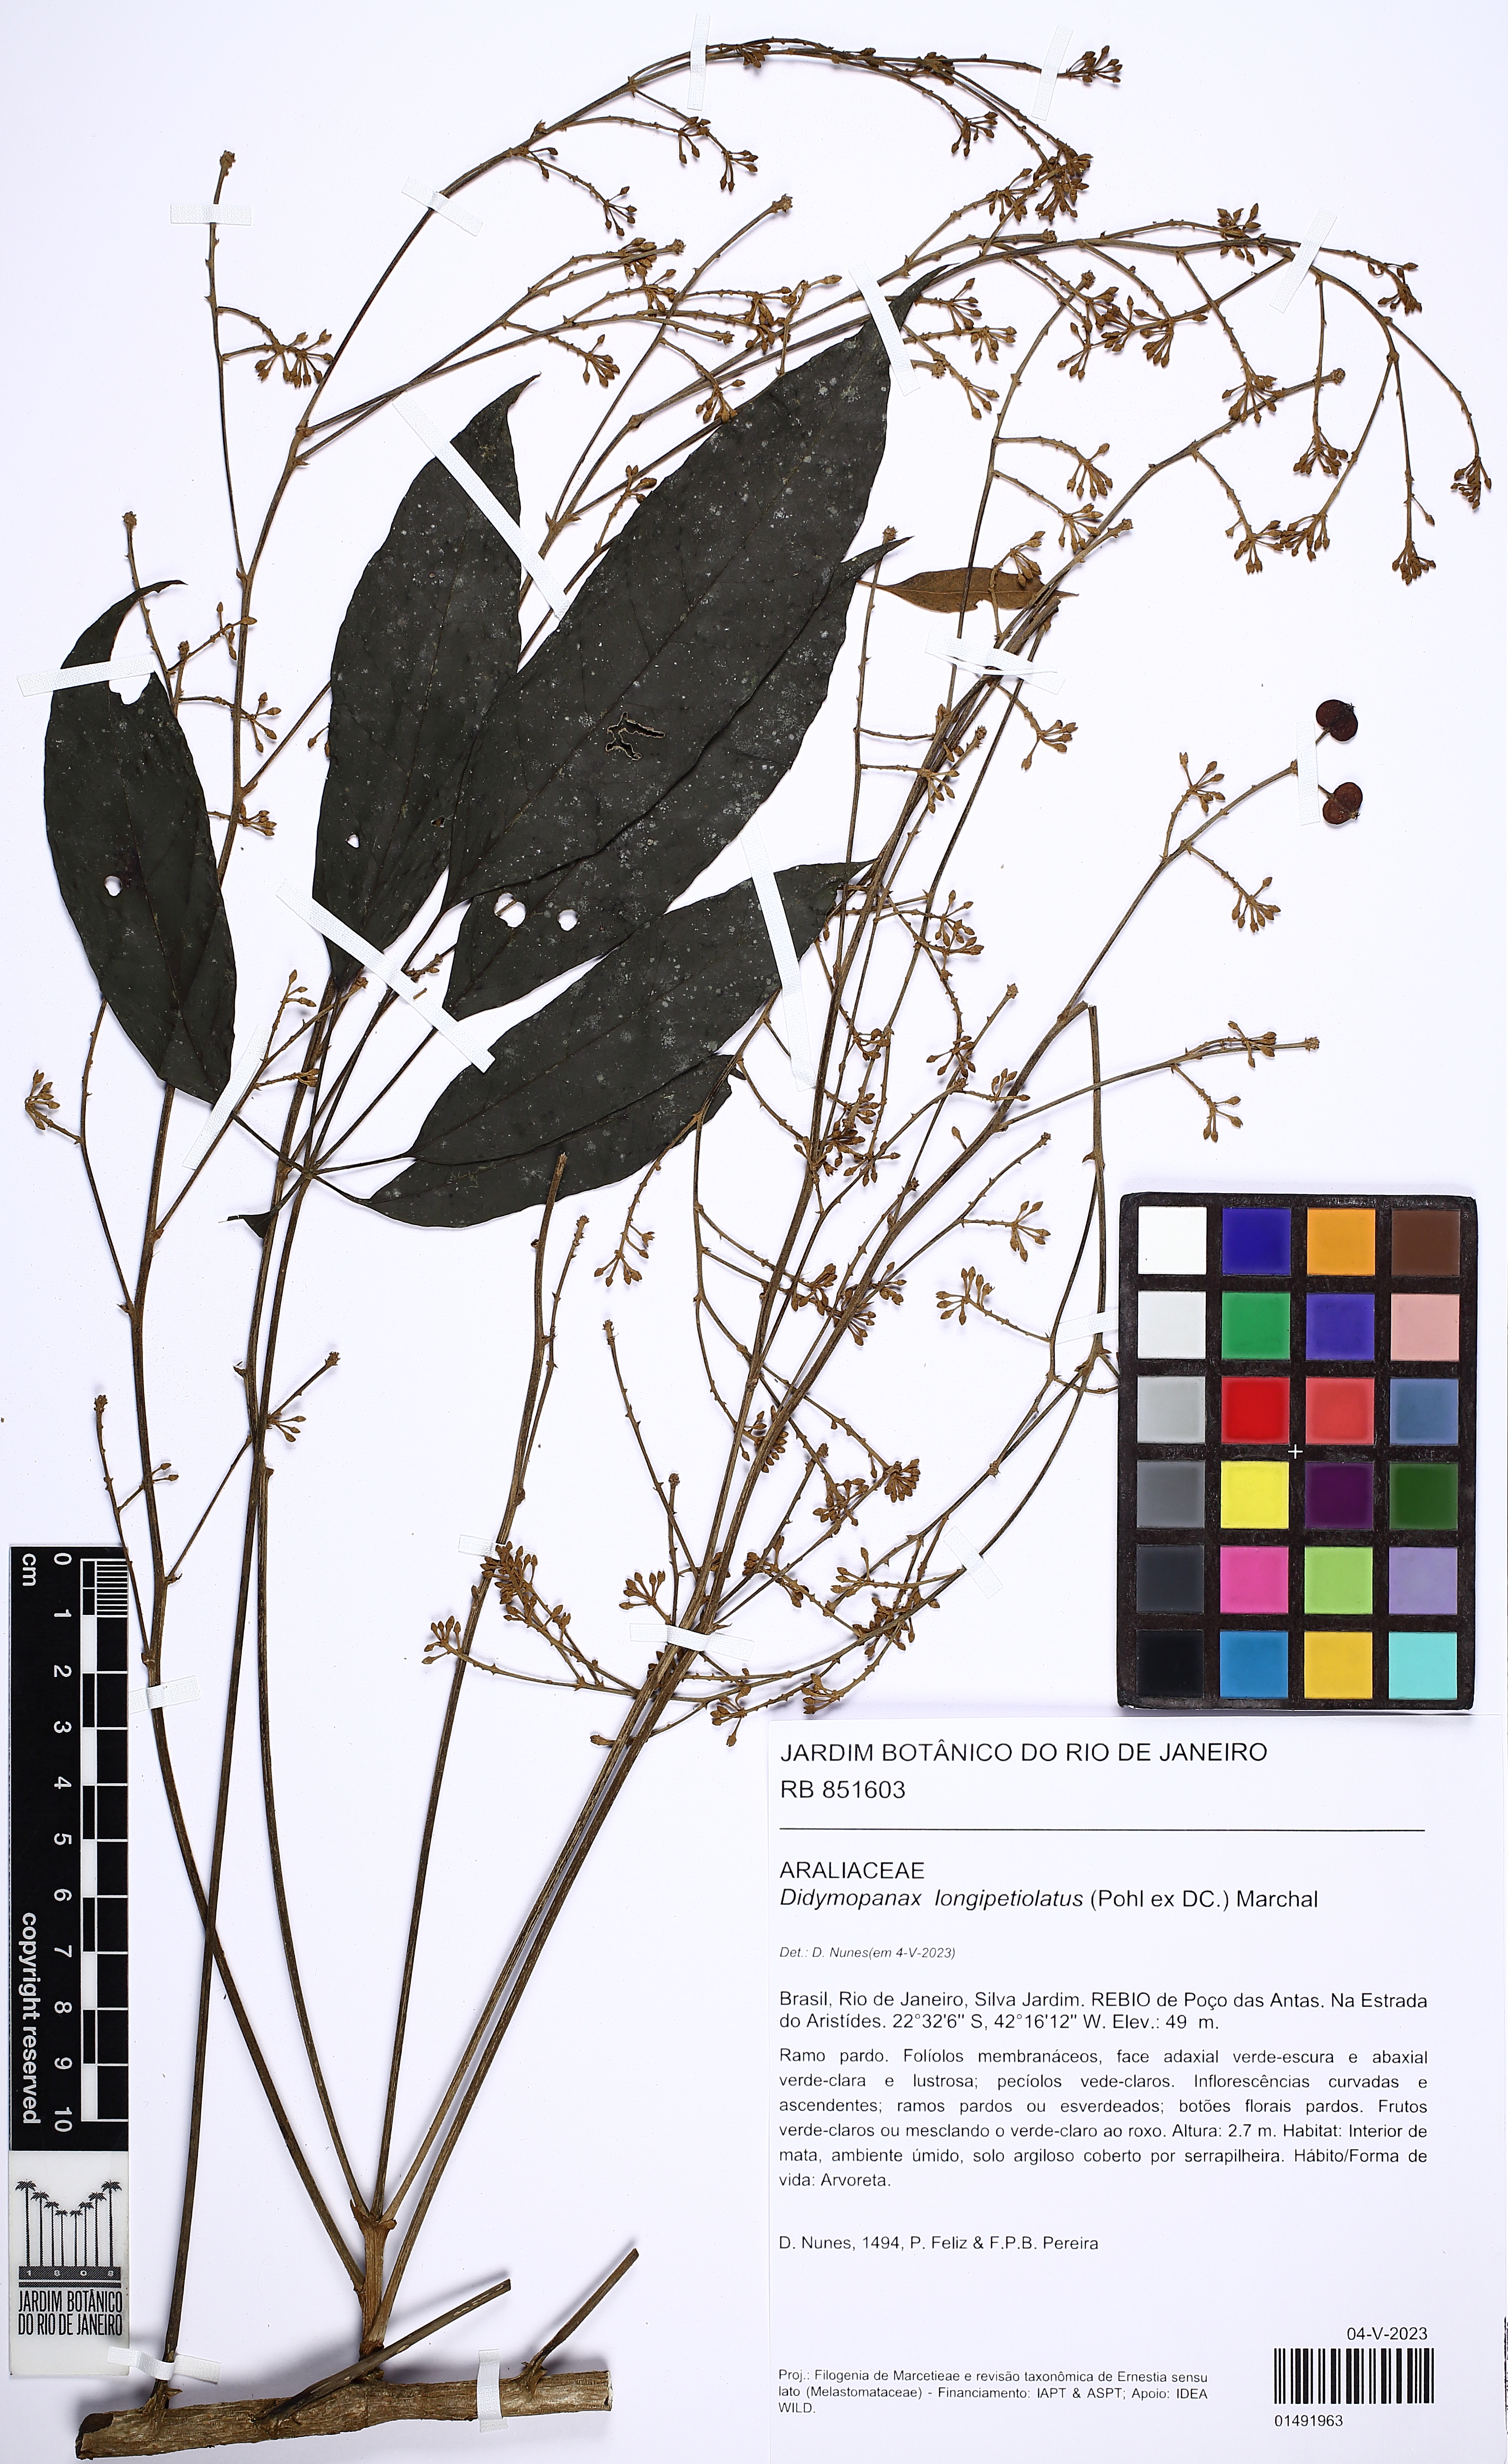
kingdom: Plantae
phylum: Tracheophyta
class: Magnoliopsida
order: Apiales
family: Araliaceae
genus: Didymopanax
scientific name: Didymopanax longepetiolatus
